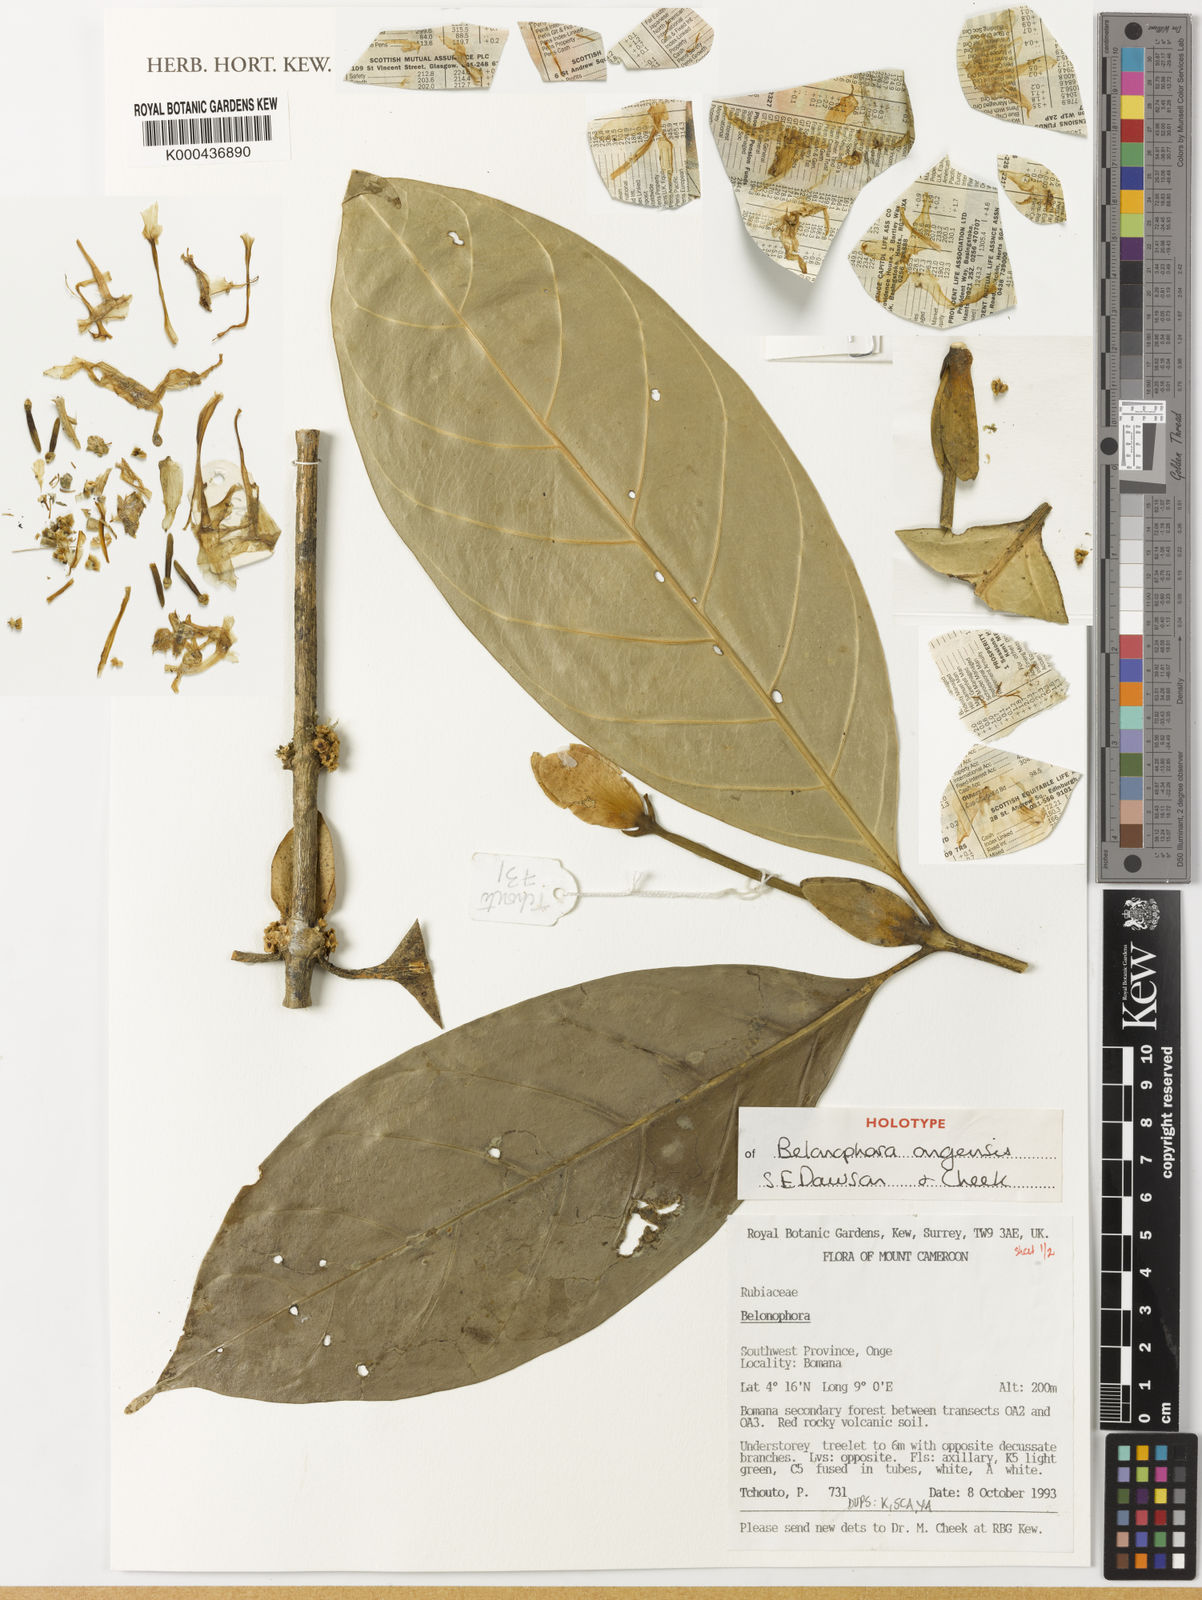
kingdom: Plantae
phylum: Tracheophyta
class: Magnoliopsida
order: Gentianales
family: Rubiaceae
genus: Belonophora
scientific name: Belonophora ongensis
